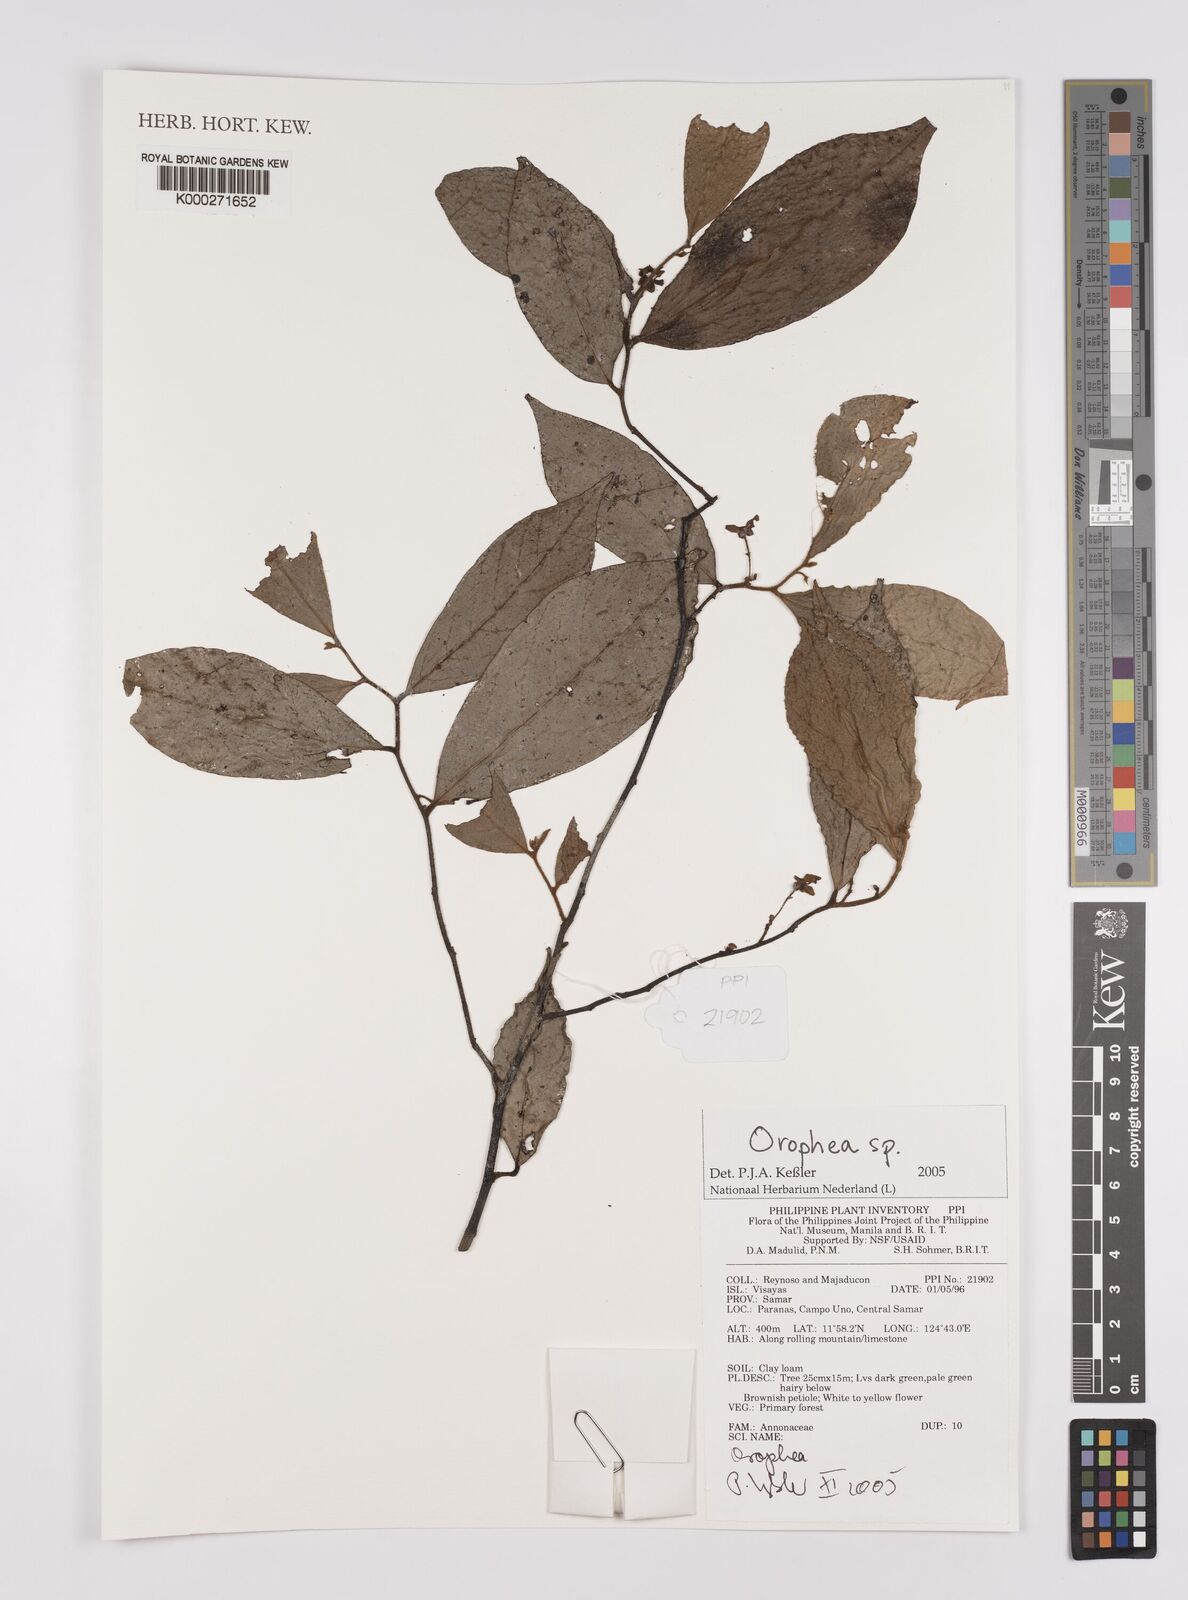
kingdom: Plantae
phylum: Tracheophyta
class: Magnoliopsida
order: Magnoliales
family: Annonaceae
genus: Orophea
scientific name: Orophea
